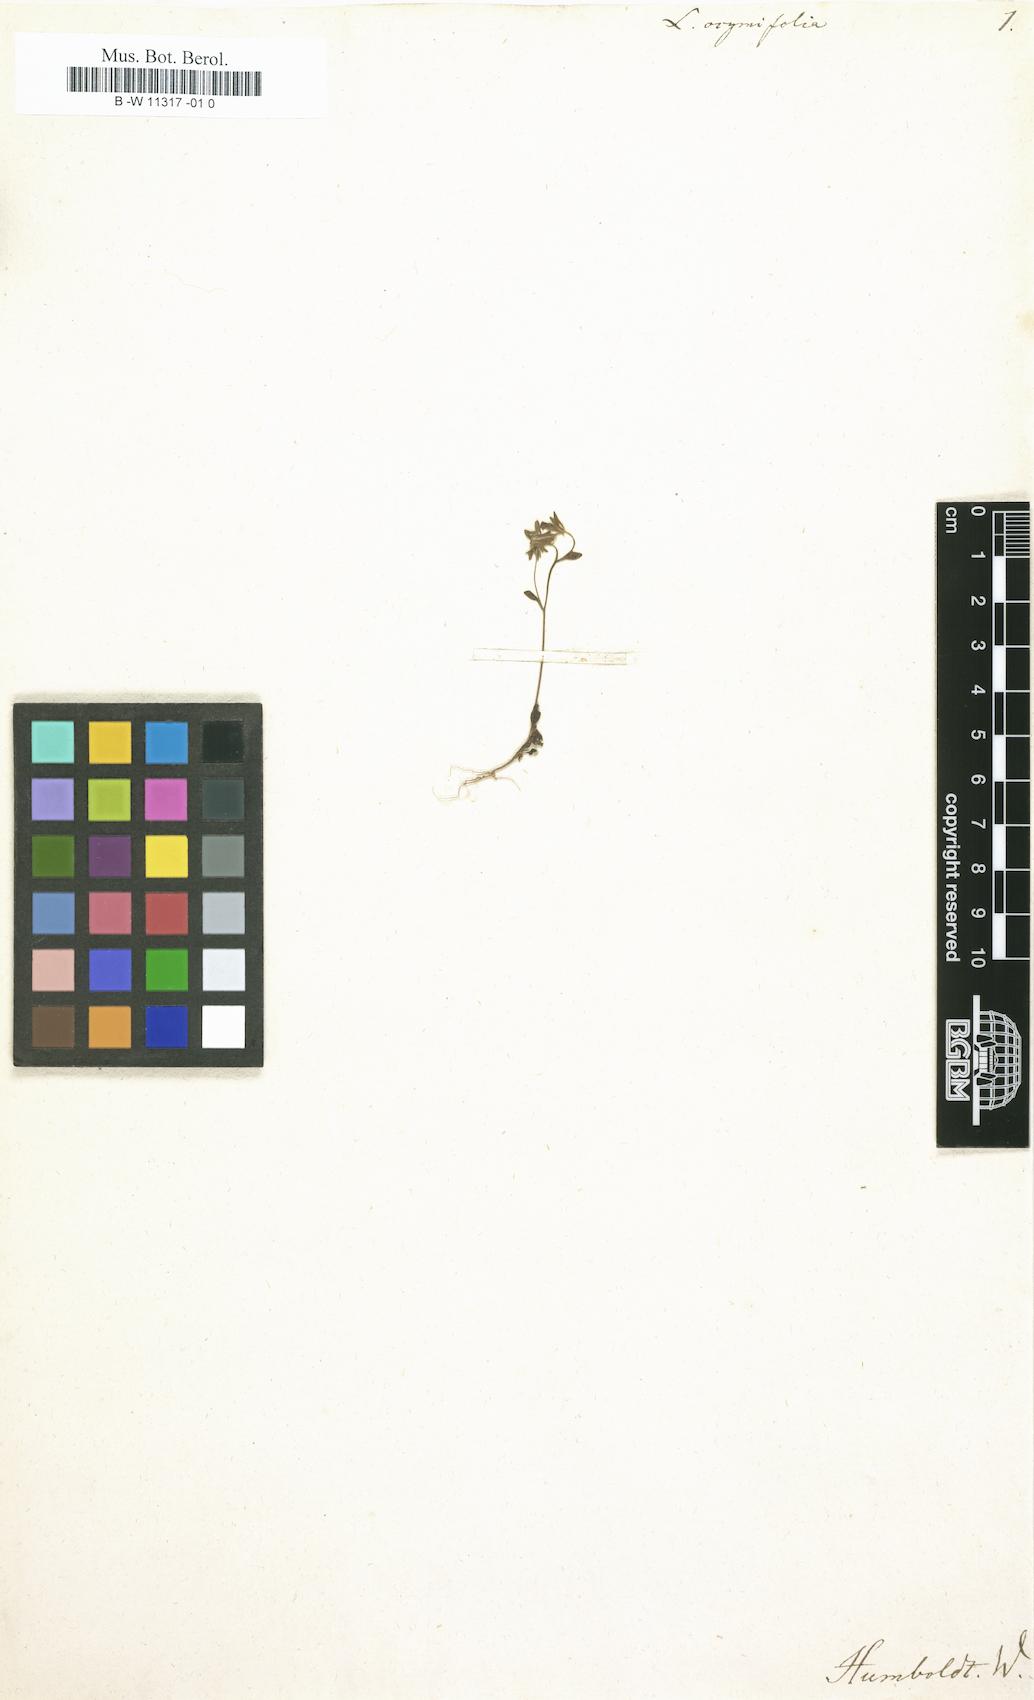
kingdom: Plantae
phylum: Tracheophyta
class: Magnoliopsida
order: Lamiales
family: Plantaginaceae
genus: Linaria
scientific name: Linaria ocimifolia
